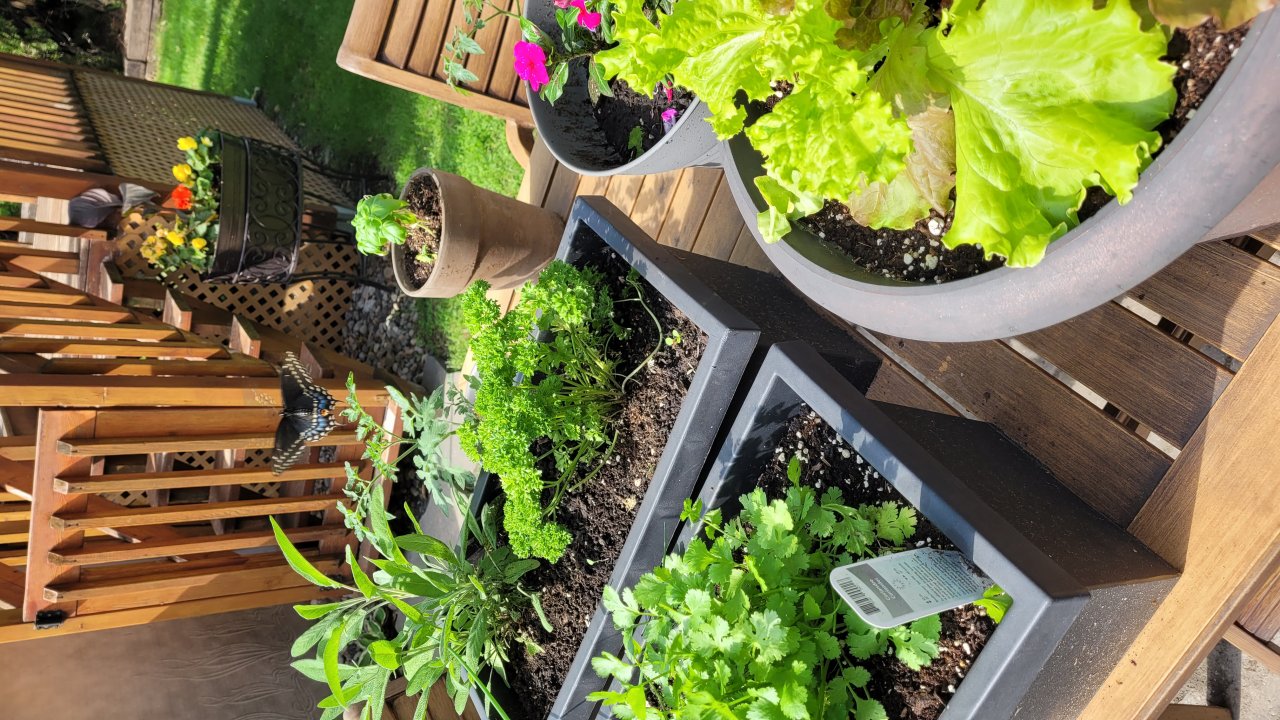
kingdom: Animalia
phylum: Arthropoda
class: Insecta
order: Lepidoptera
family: Papilionidae
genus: Papilio
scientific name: Papilio polyxenes
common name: Black Swallowtail
